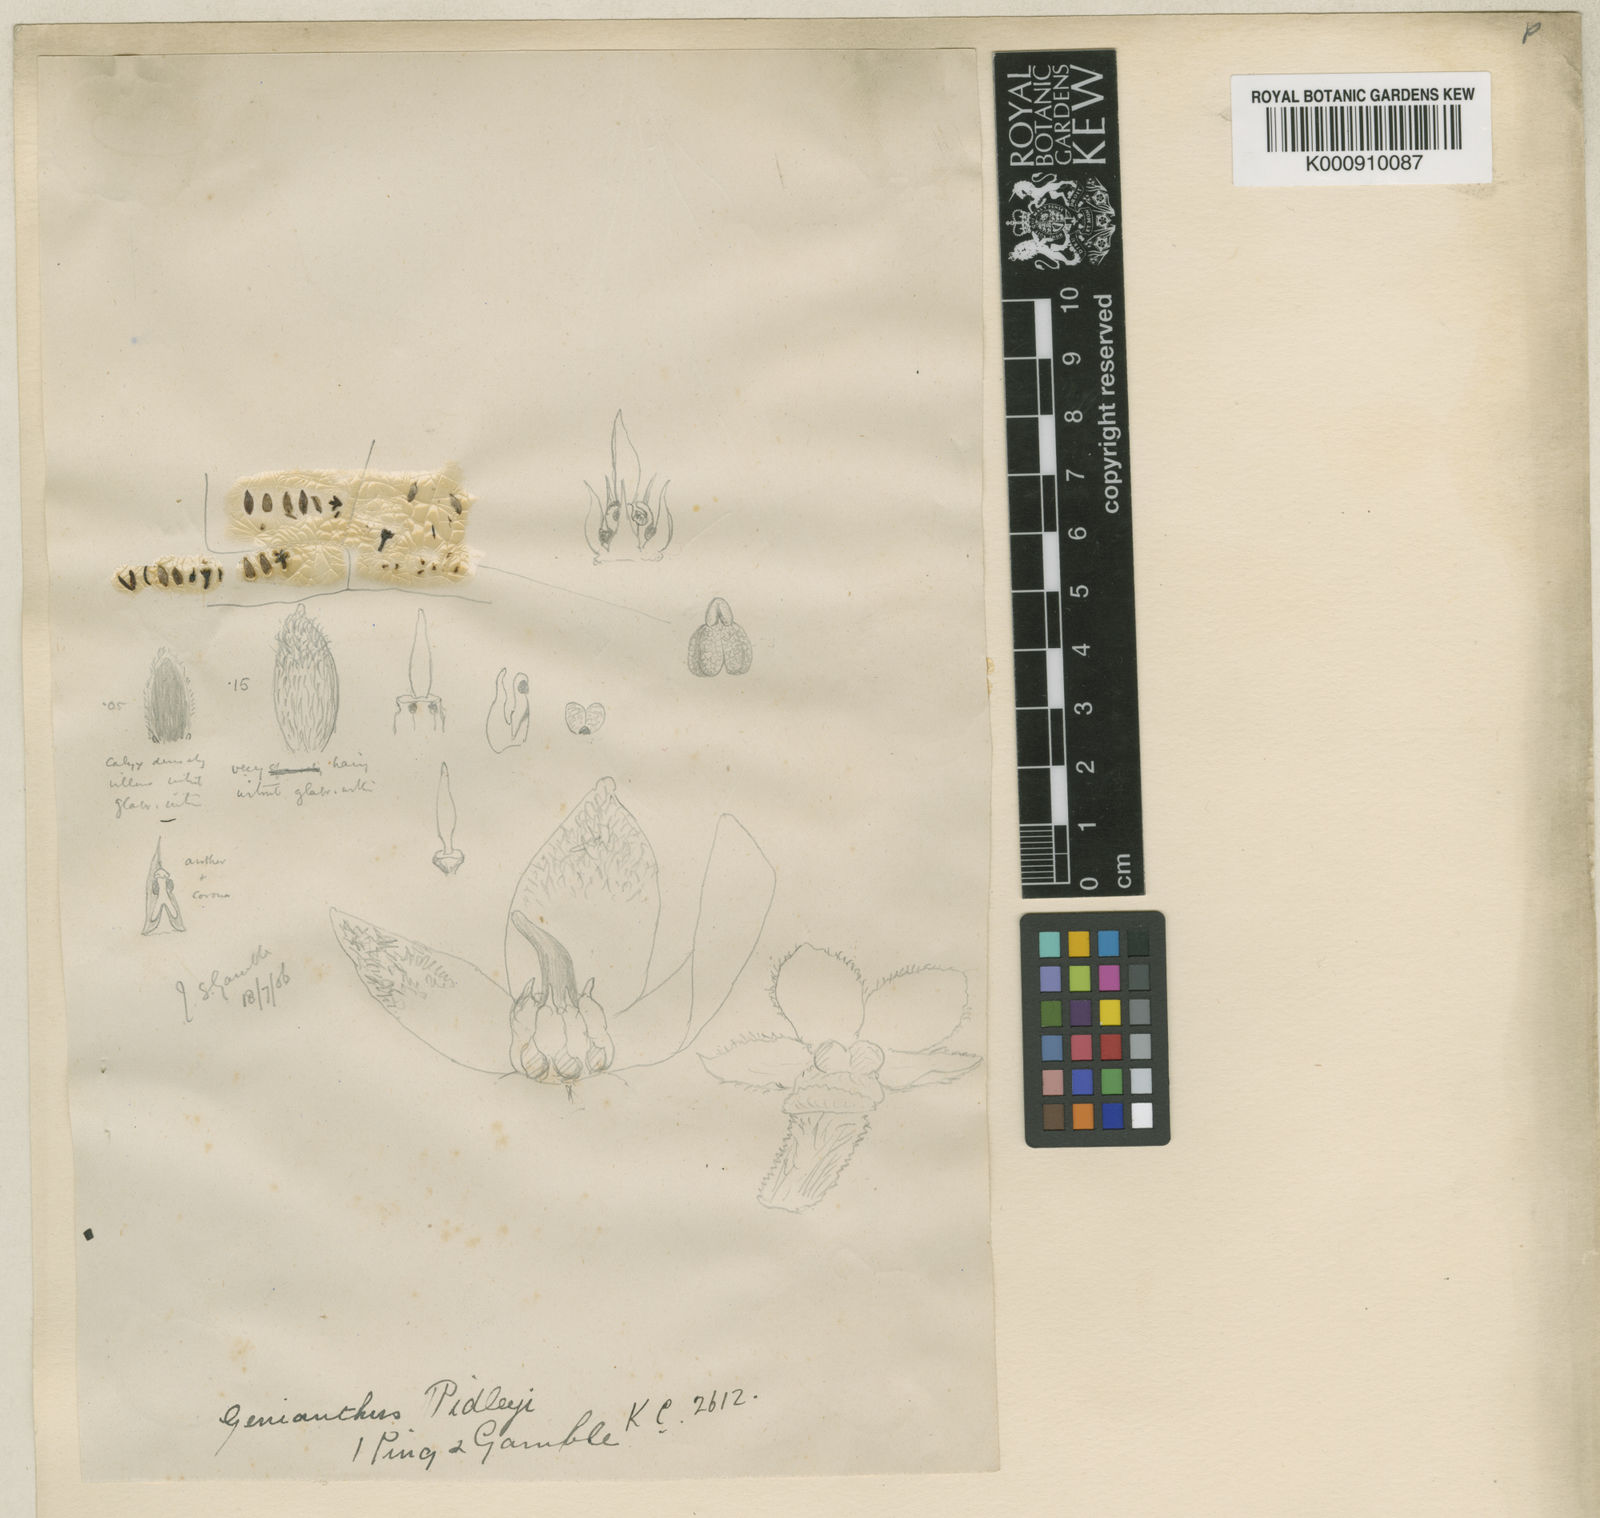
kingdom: Plantae
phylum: Tracheophyta
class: Magnoliopsida
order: Gentianales
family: Apocynaceae
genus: Secamone
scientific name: Secamone
